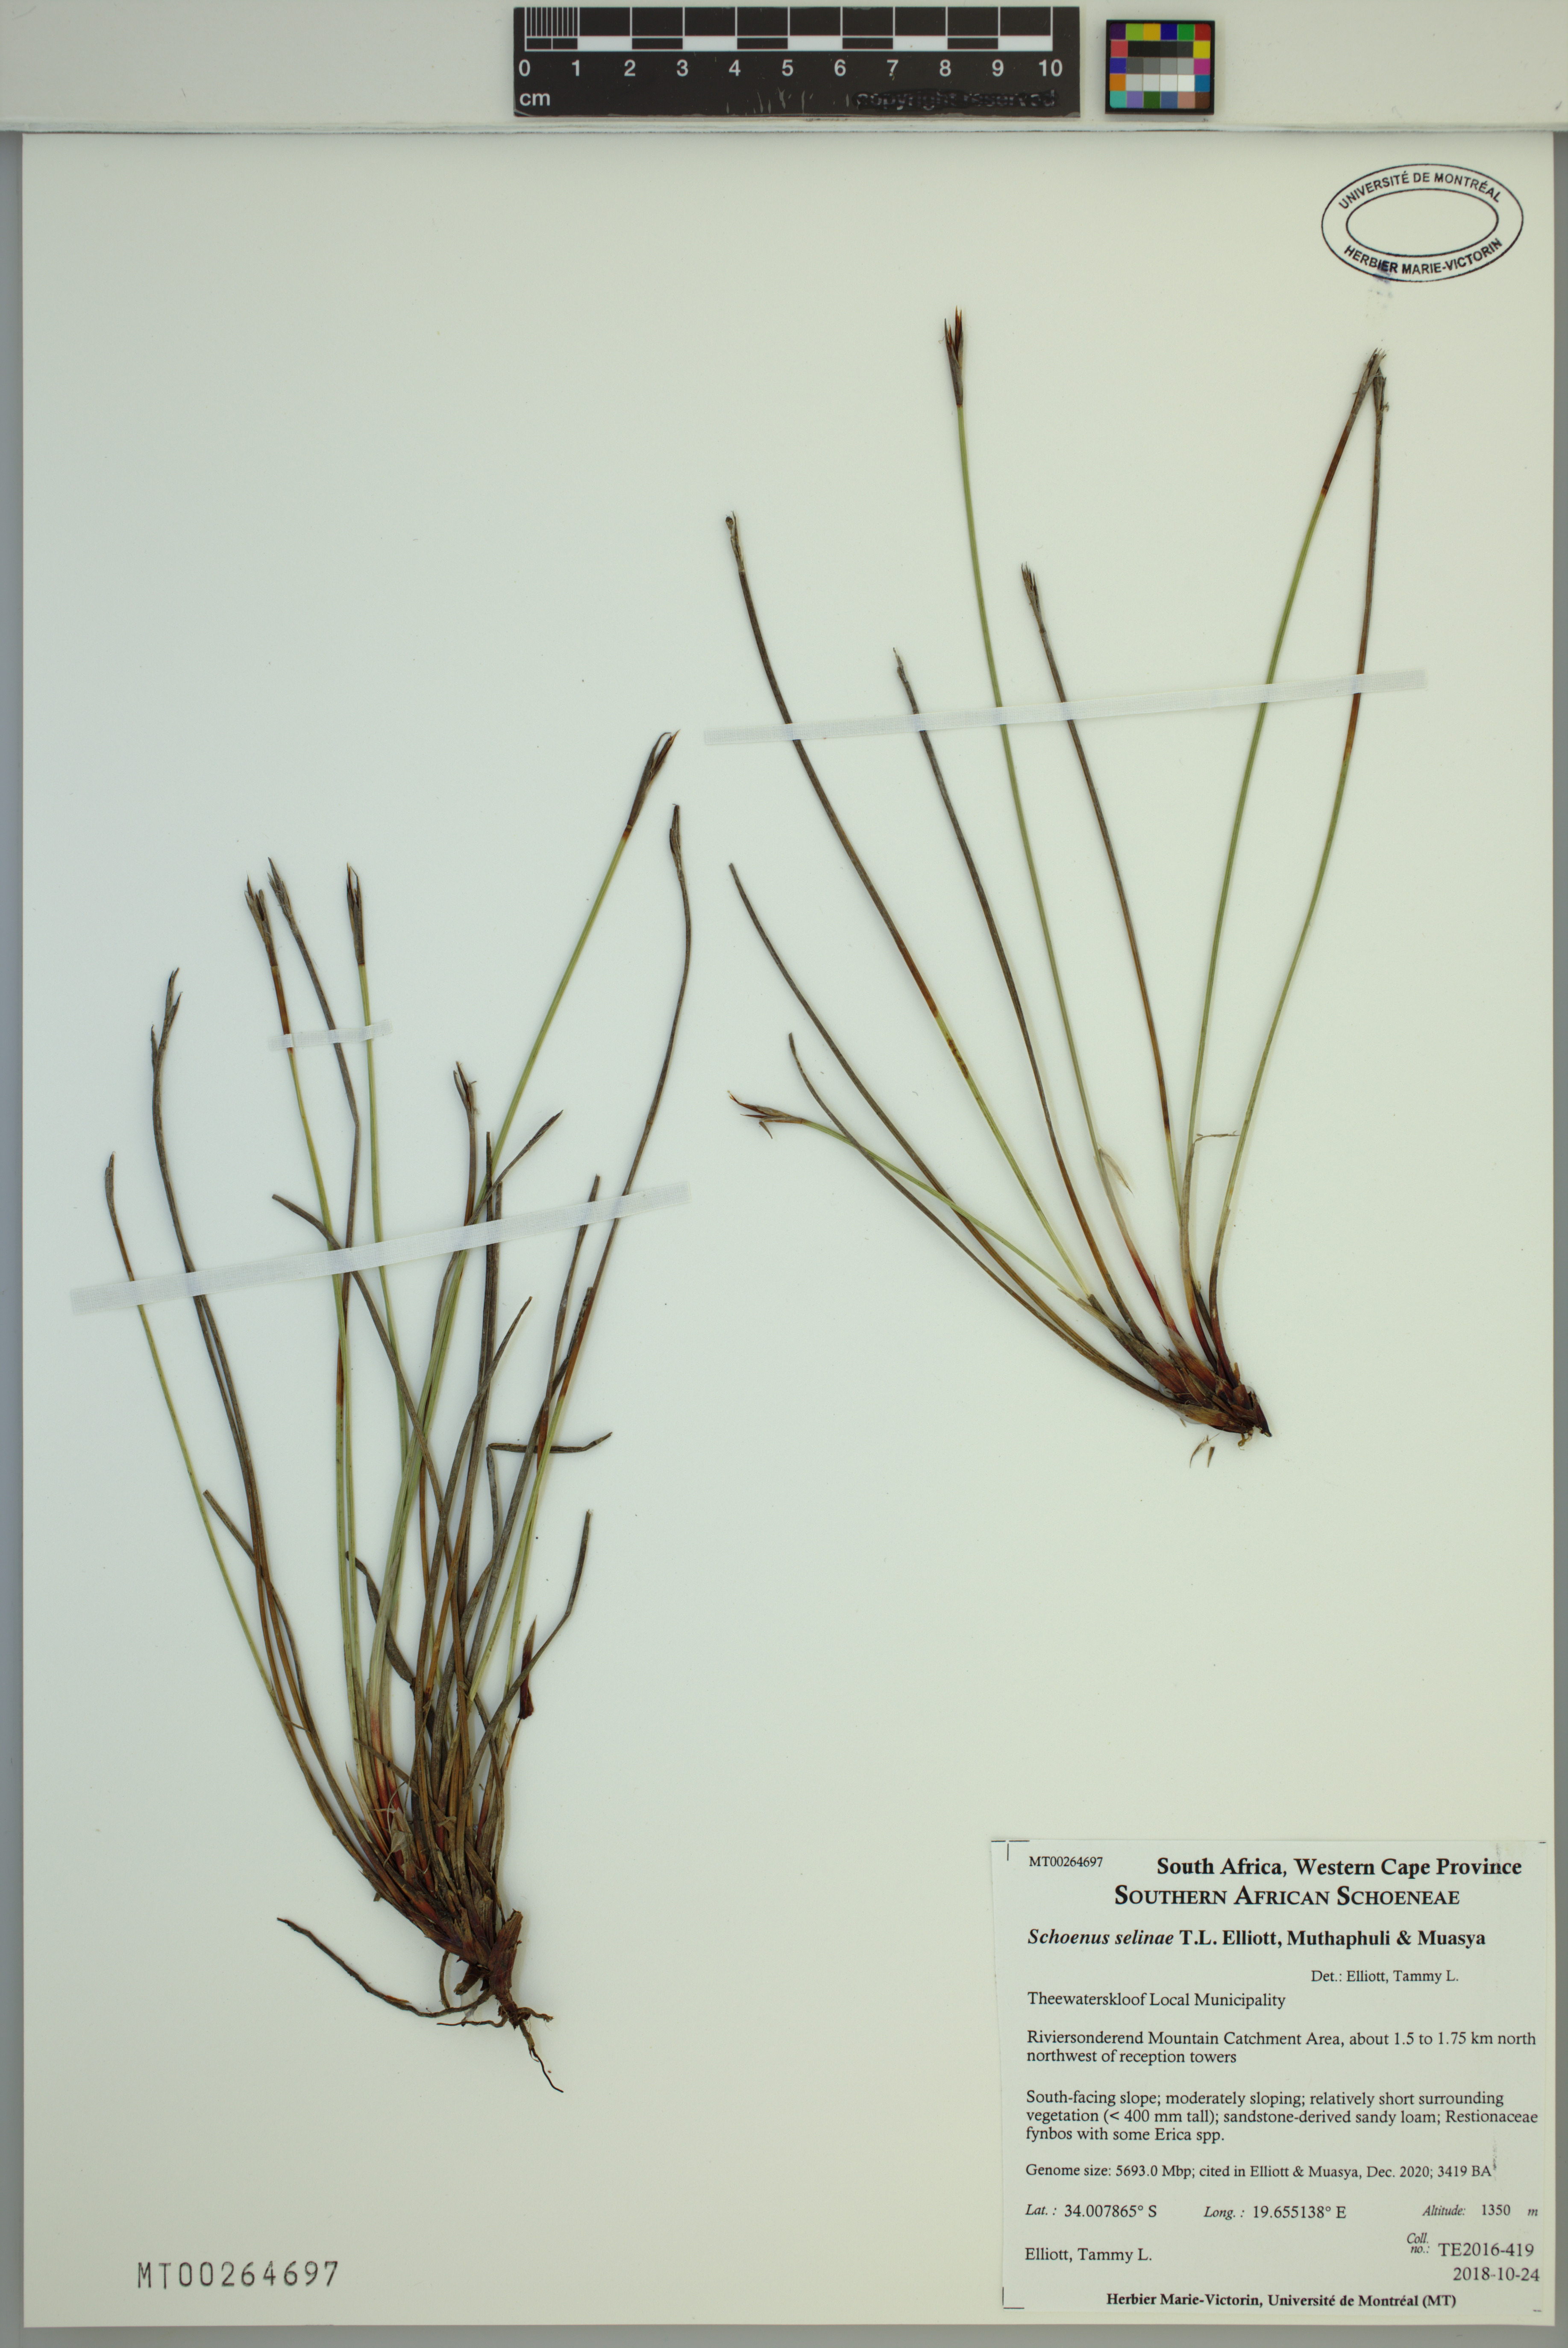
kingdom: Plantae
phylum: Tracheophyta
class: Liliopsida
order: Poales
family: Cyperaceae
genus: Schoenus
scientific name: Schoenus selinae
